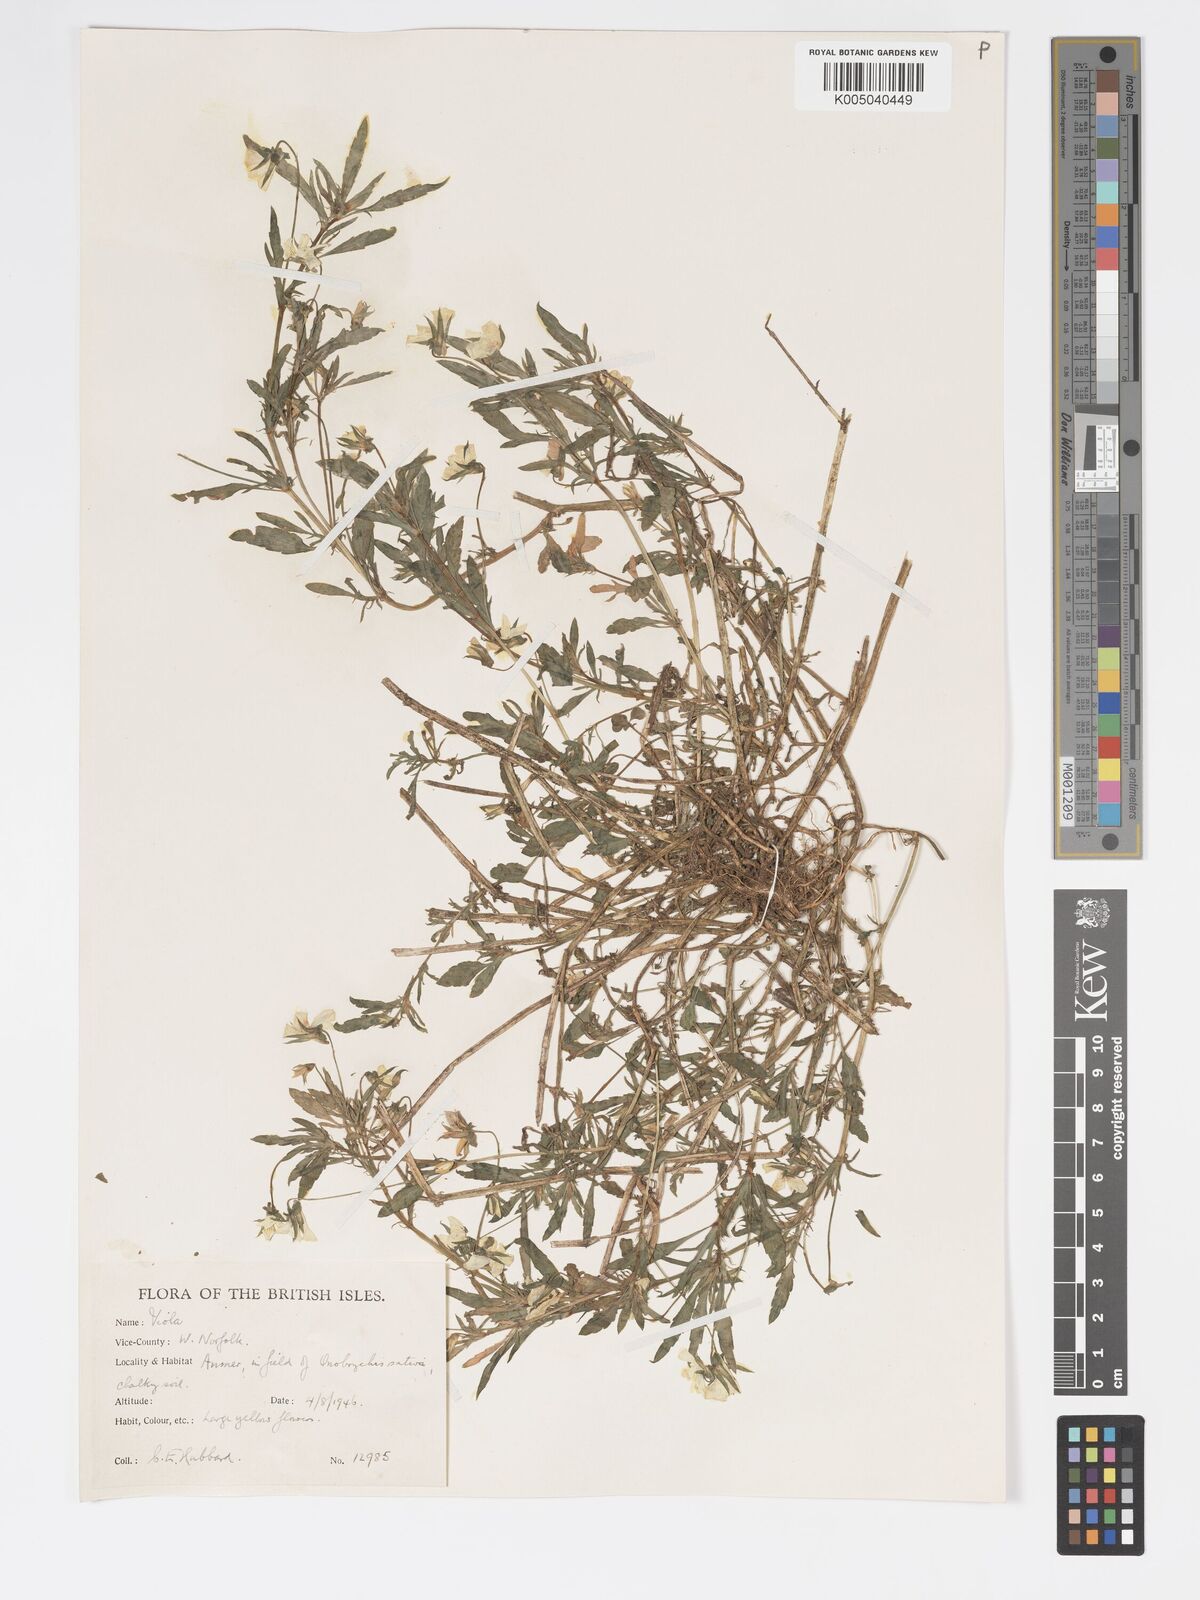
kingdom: Plantae
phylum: Tracheophyta
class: Magnoliopsida
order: Malpighiales
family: Violaceae
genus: Viola
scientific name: Viola arvensis
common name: Field pansy
